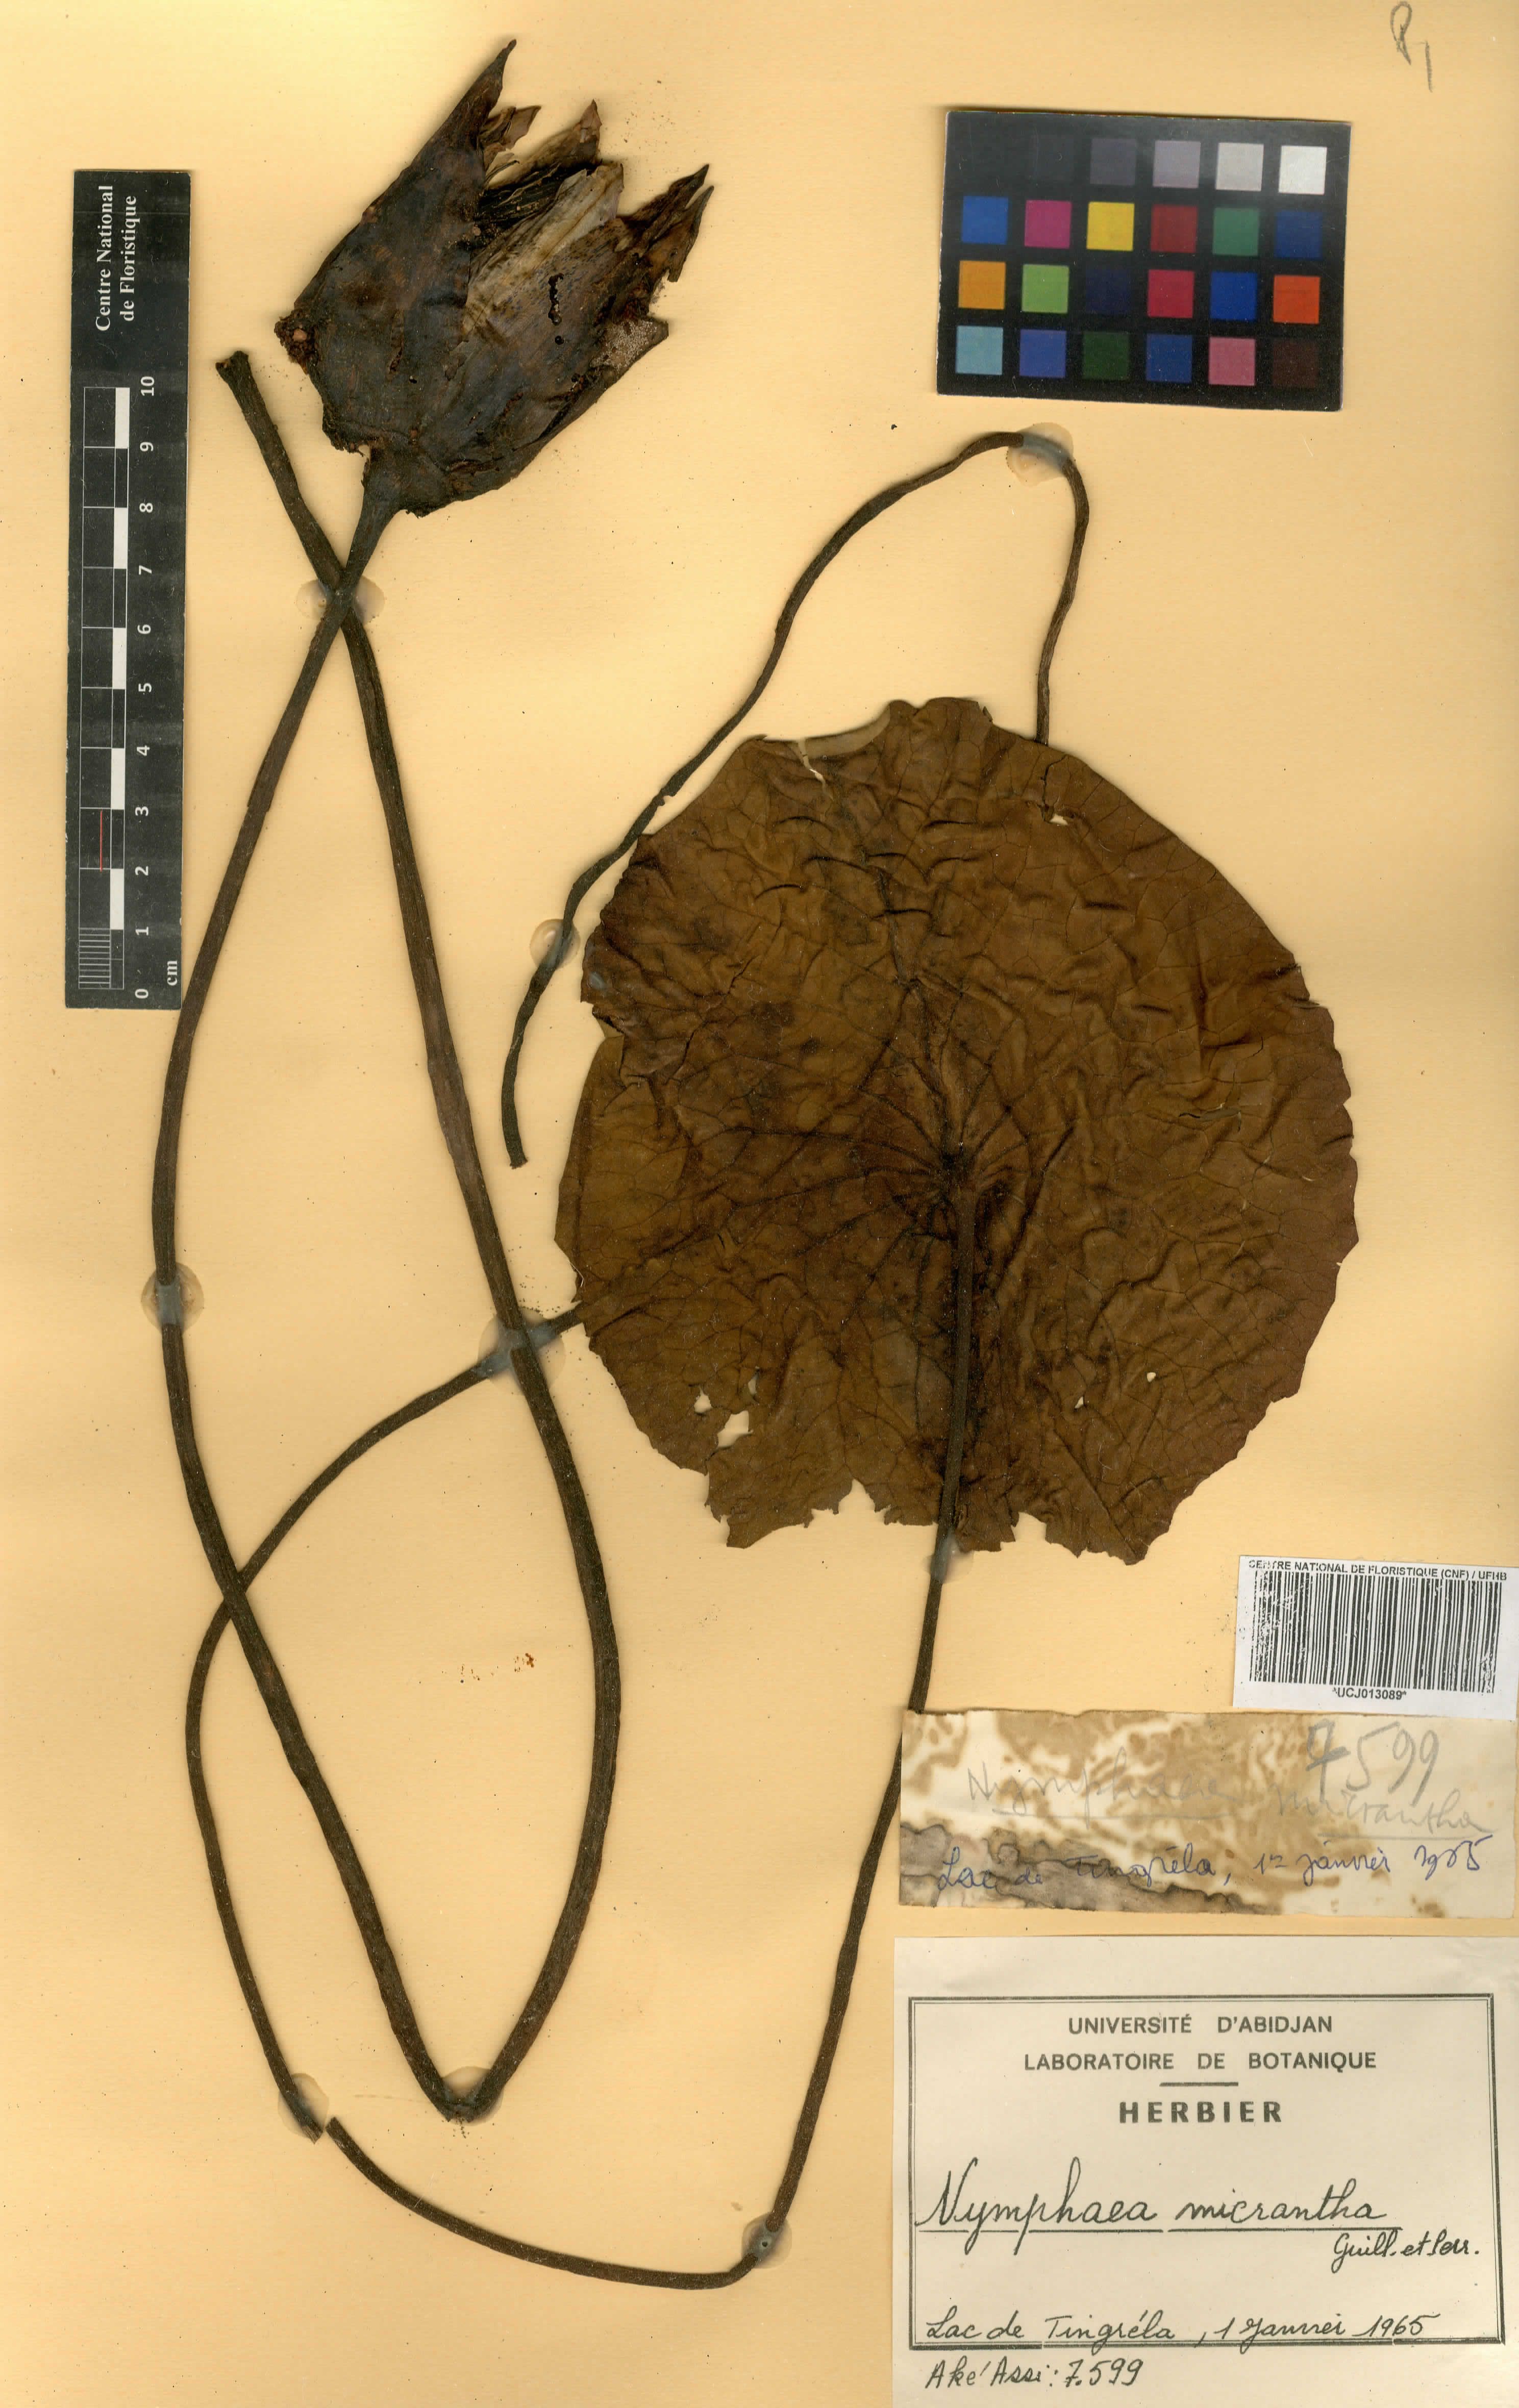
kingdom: Plantae
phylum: Tracheophyta
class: Magnoliopsida
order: Nymphaeales
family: Nymphaeaceae
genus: Nymphaea
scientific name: Nymphaea micrantha
